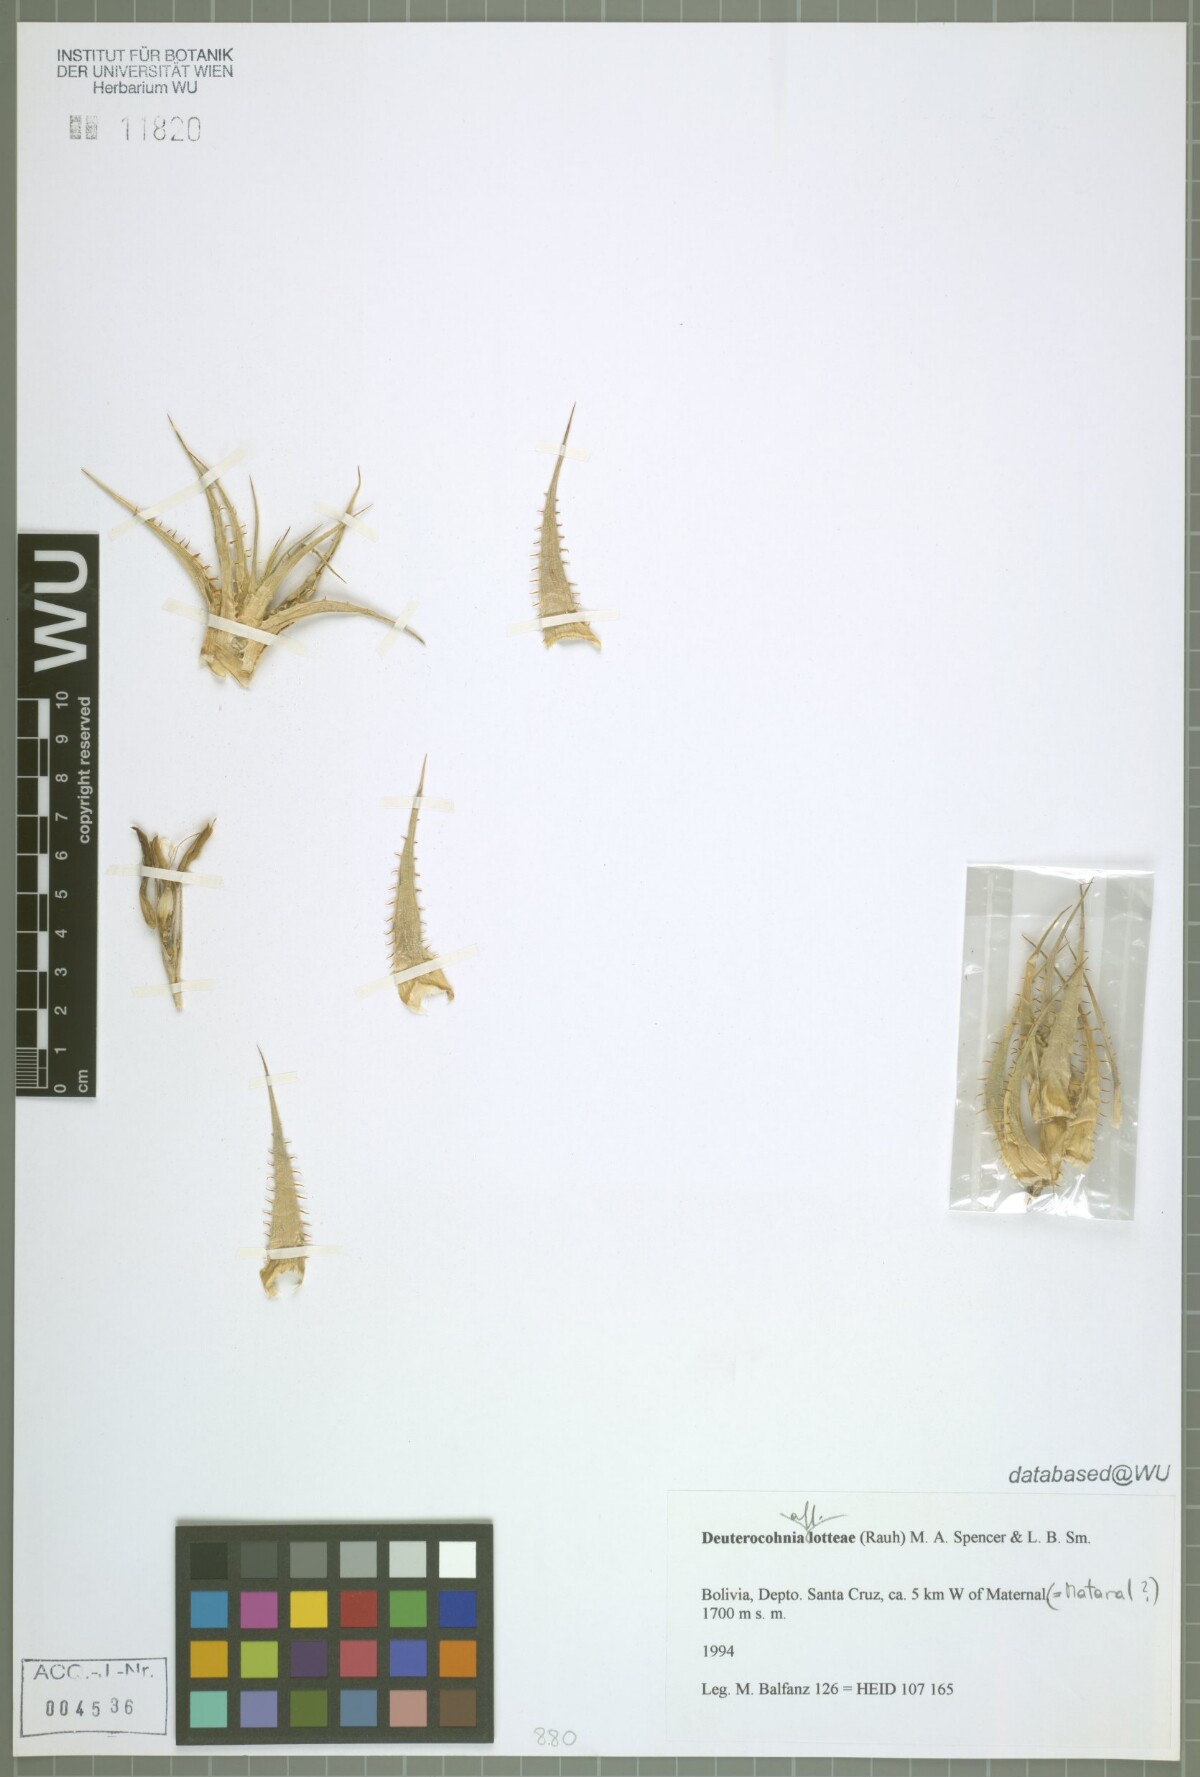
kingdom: Plantae
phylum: Tracheophyta
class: Liliopsida
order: Poales
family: Bromeliaceae
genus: Deuterocohnia
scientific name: Deuterocohnia lotteae
